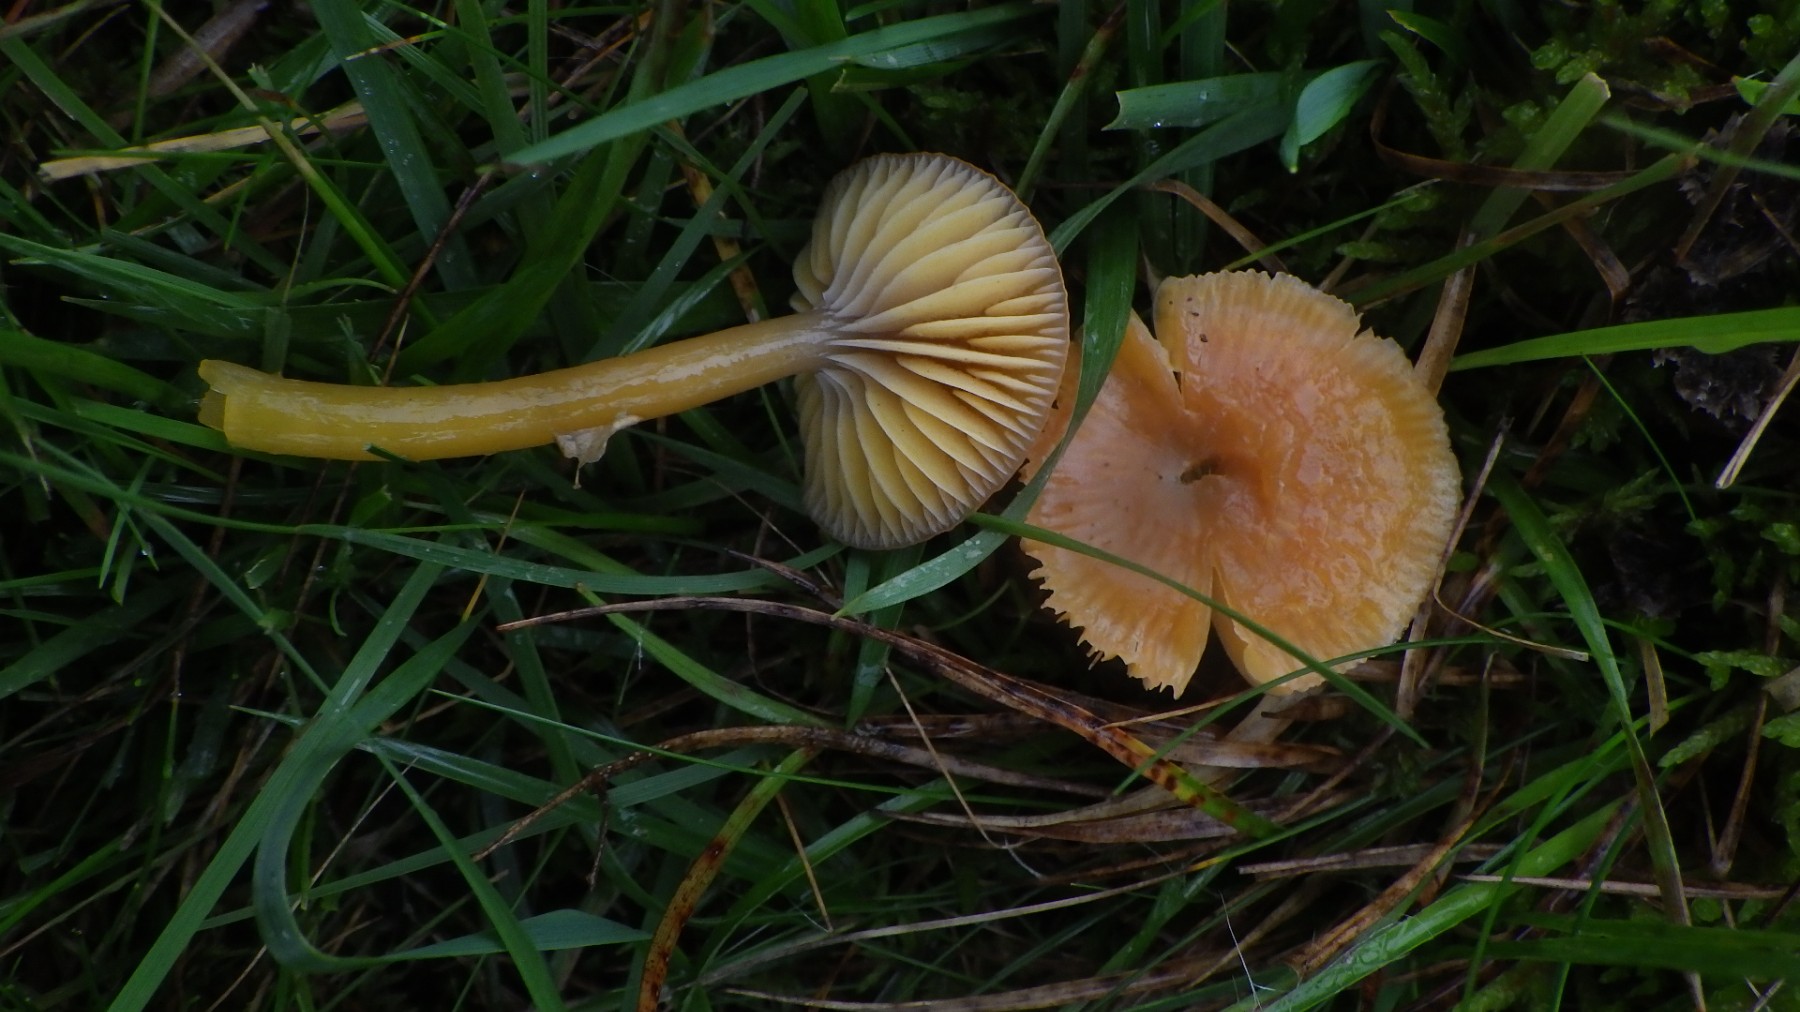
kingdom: Fungi
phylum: Basidiomycota
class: Agaricomycetes
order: Agaricales
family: Hygrophoraceae
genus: Gliophorus
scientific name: Gliophorus laetus
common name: brusk-vokshat
